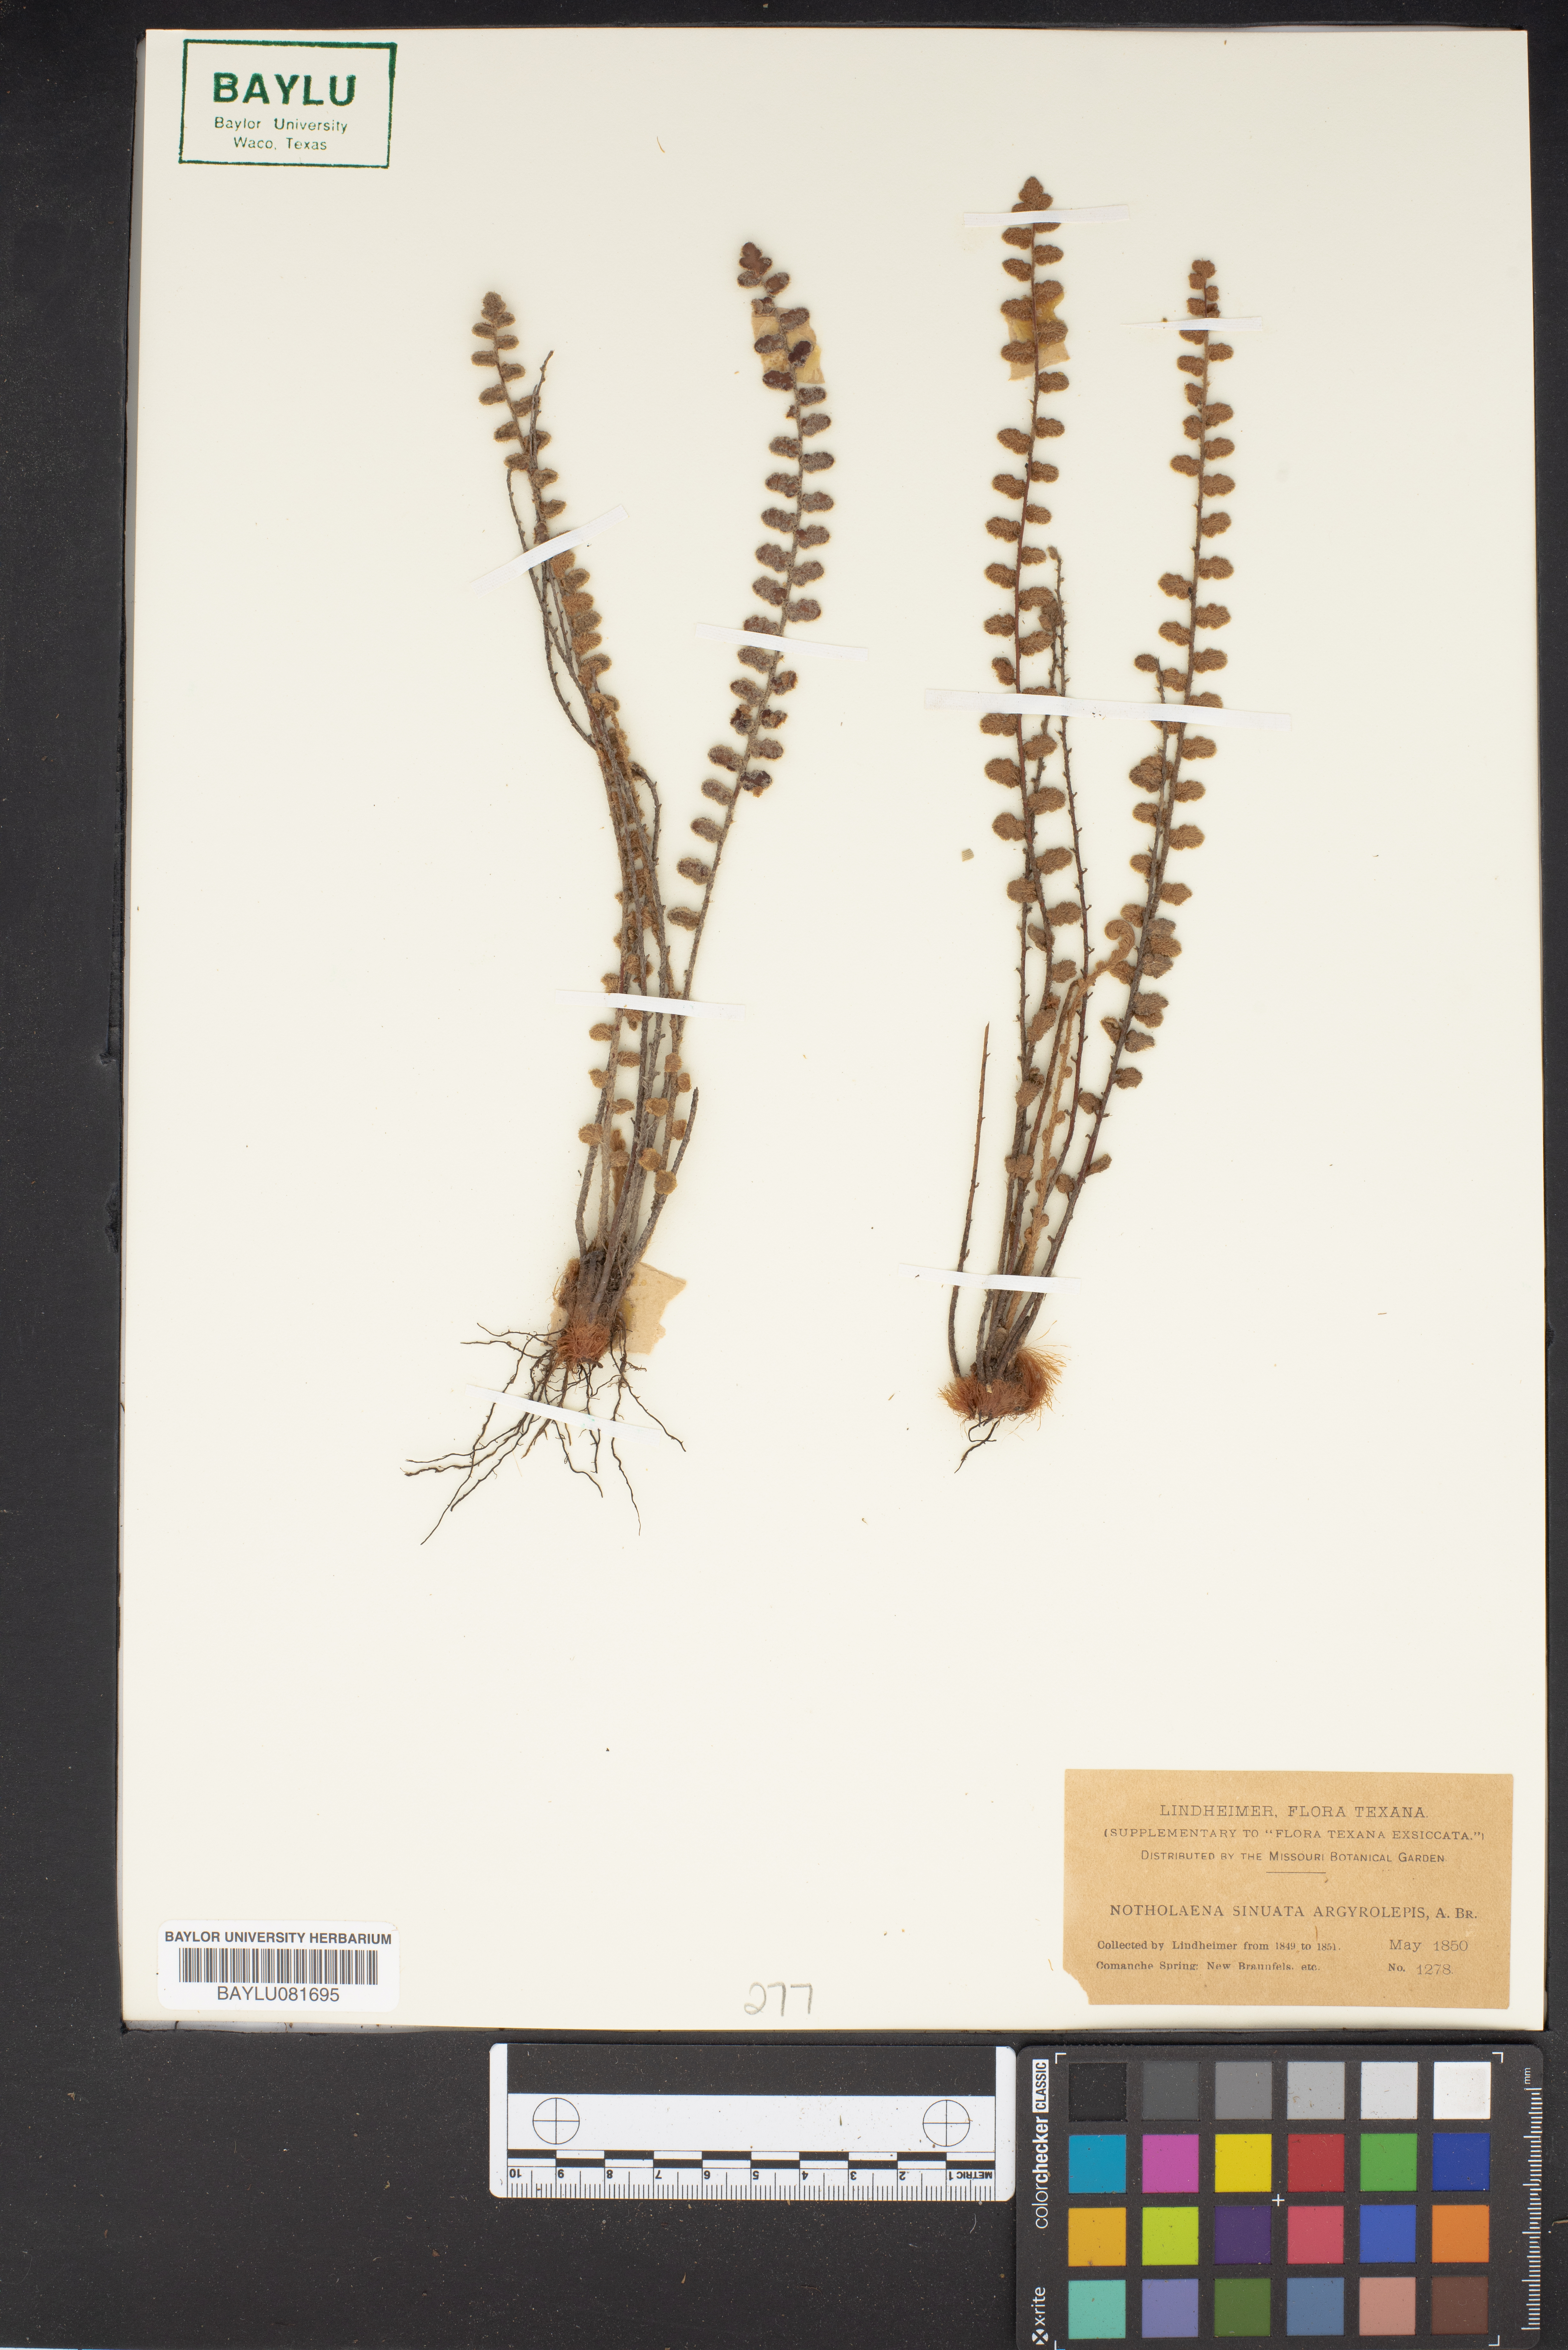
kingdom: Plantae
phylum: Tracheophyta
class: Polypodiopsida
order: Polypodiales
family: Pteridaceae
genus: Astrolepis
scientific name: Astrolepis sinuata
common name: Wavy scaly cloakfern
